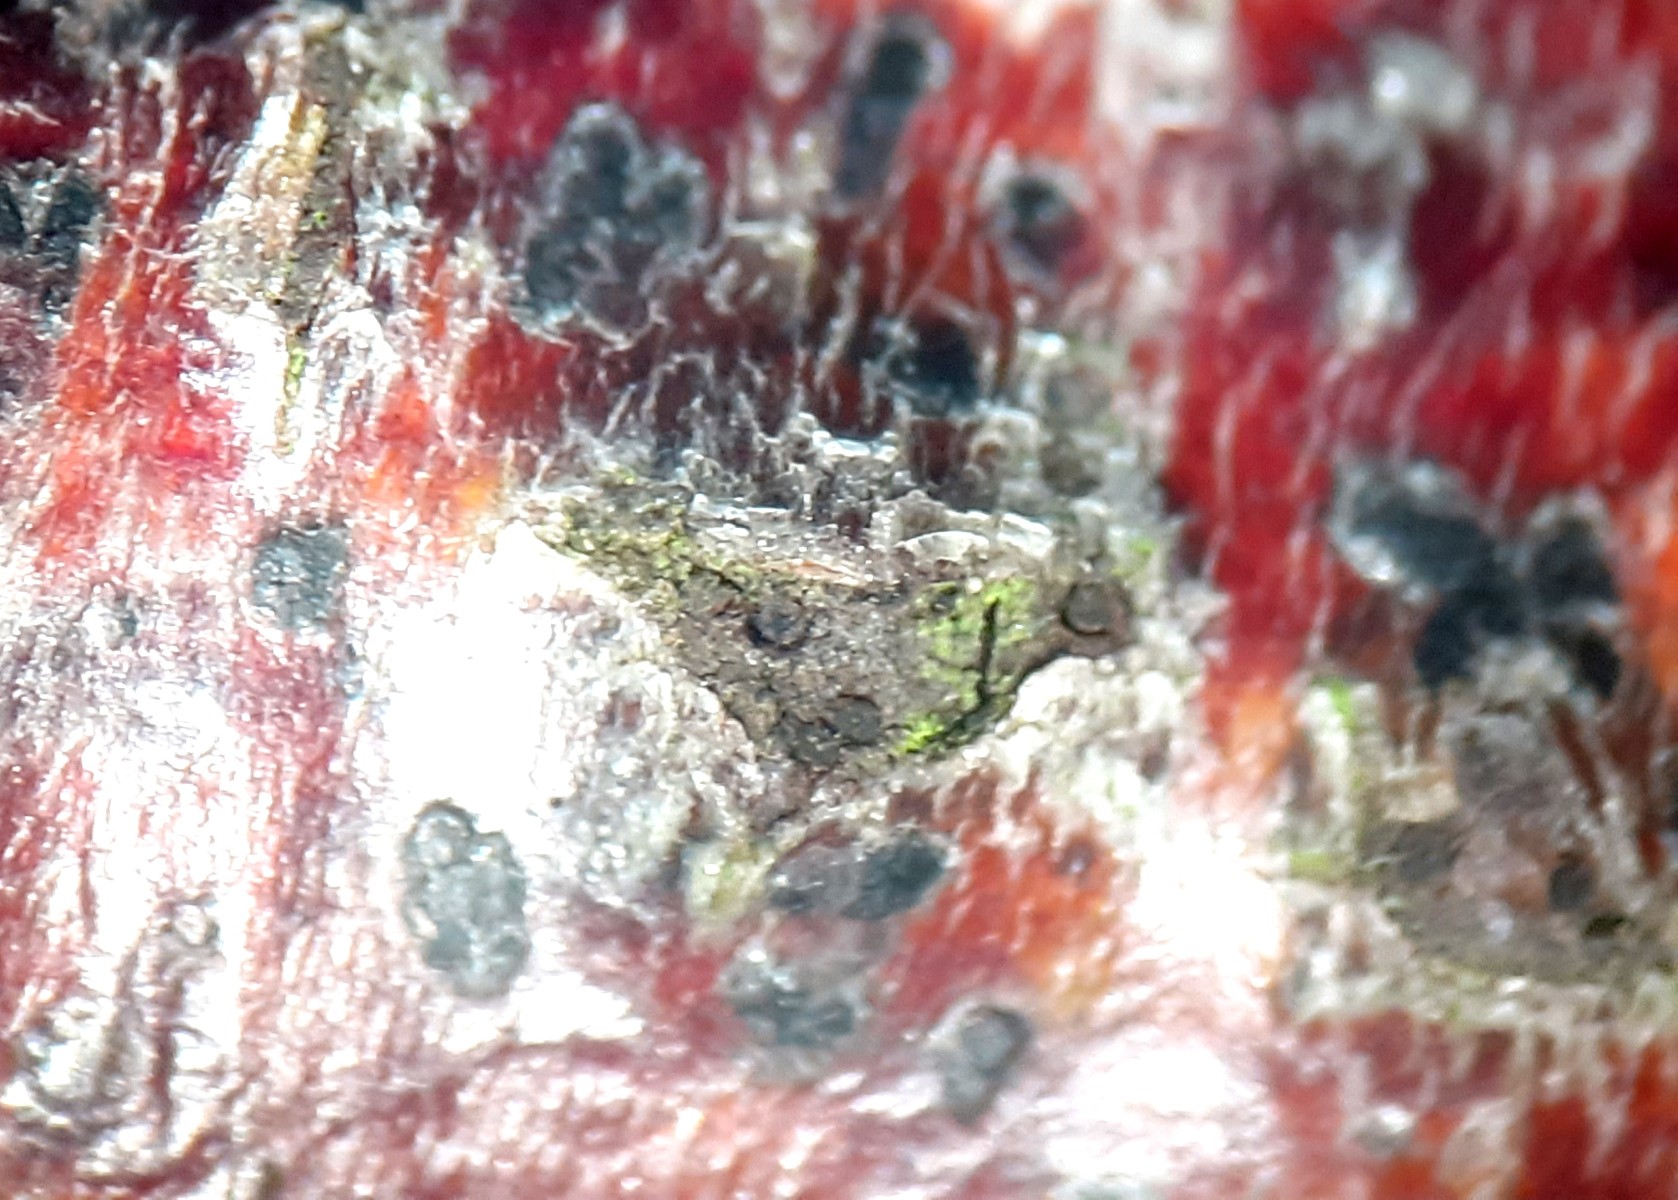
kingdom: Fungi
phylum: Ascomycota
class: Sordariomycetes
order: Diaporthales
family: Coryneaceae
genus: Coryneum
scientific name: Coryneum lanciforme
